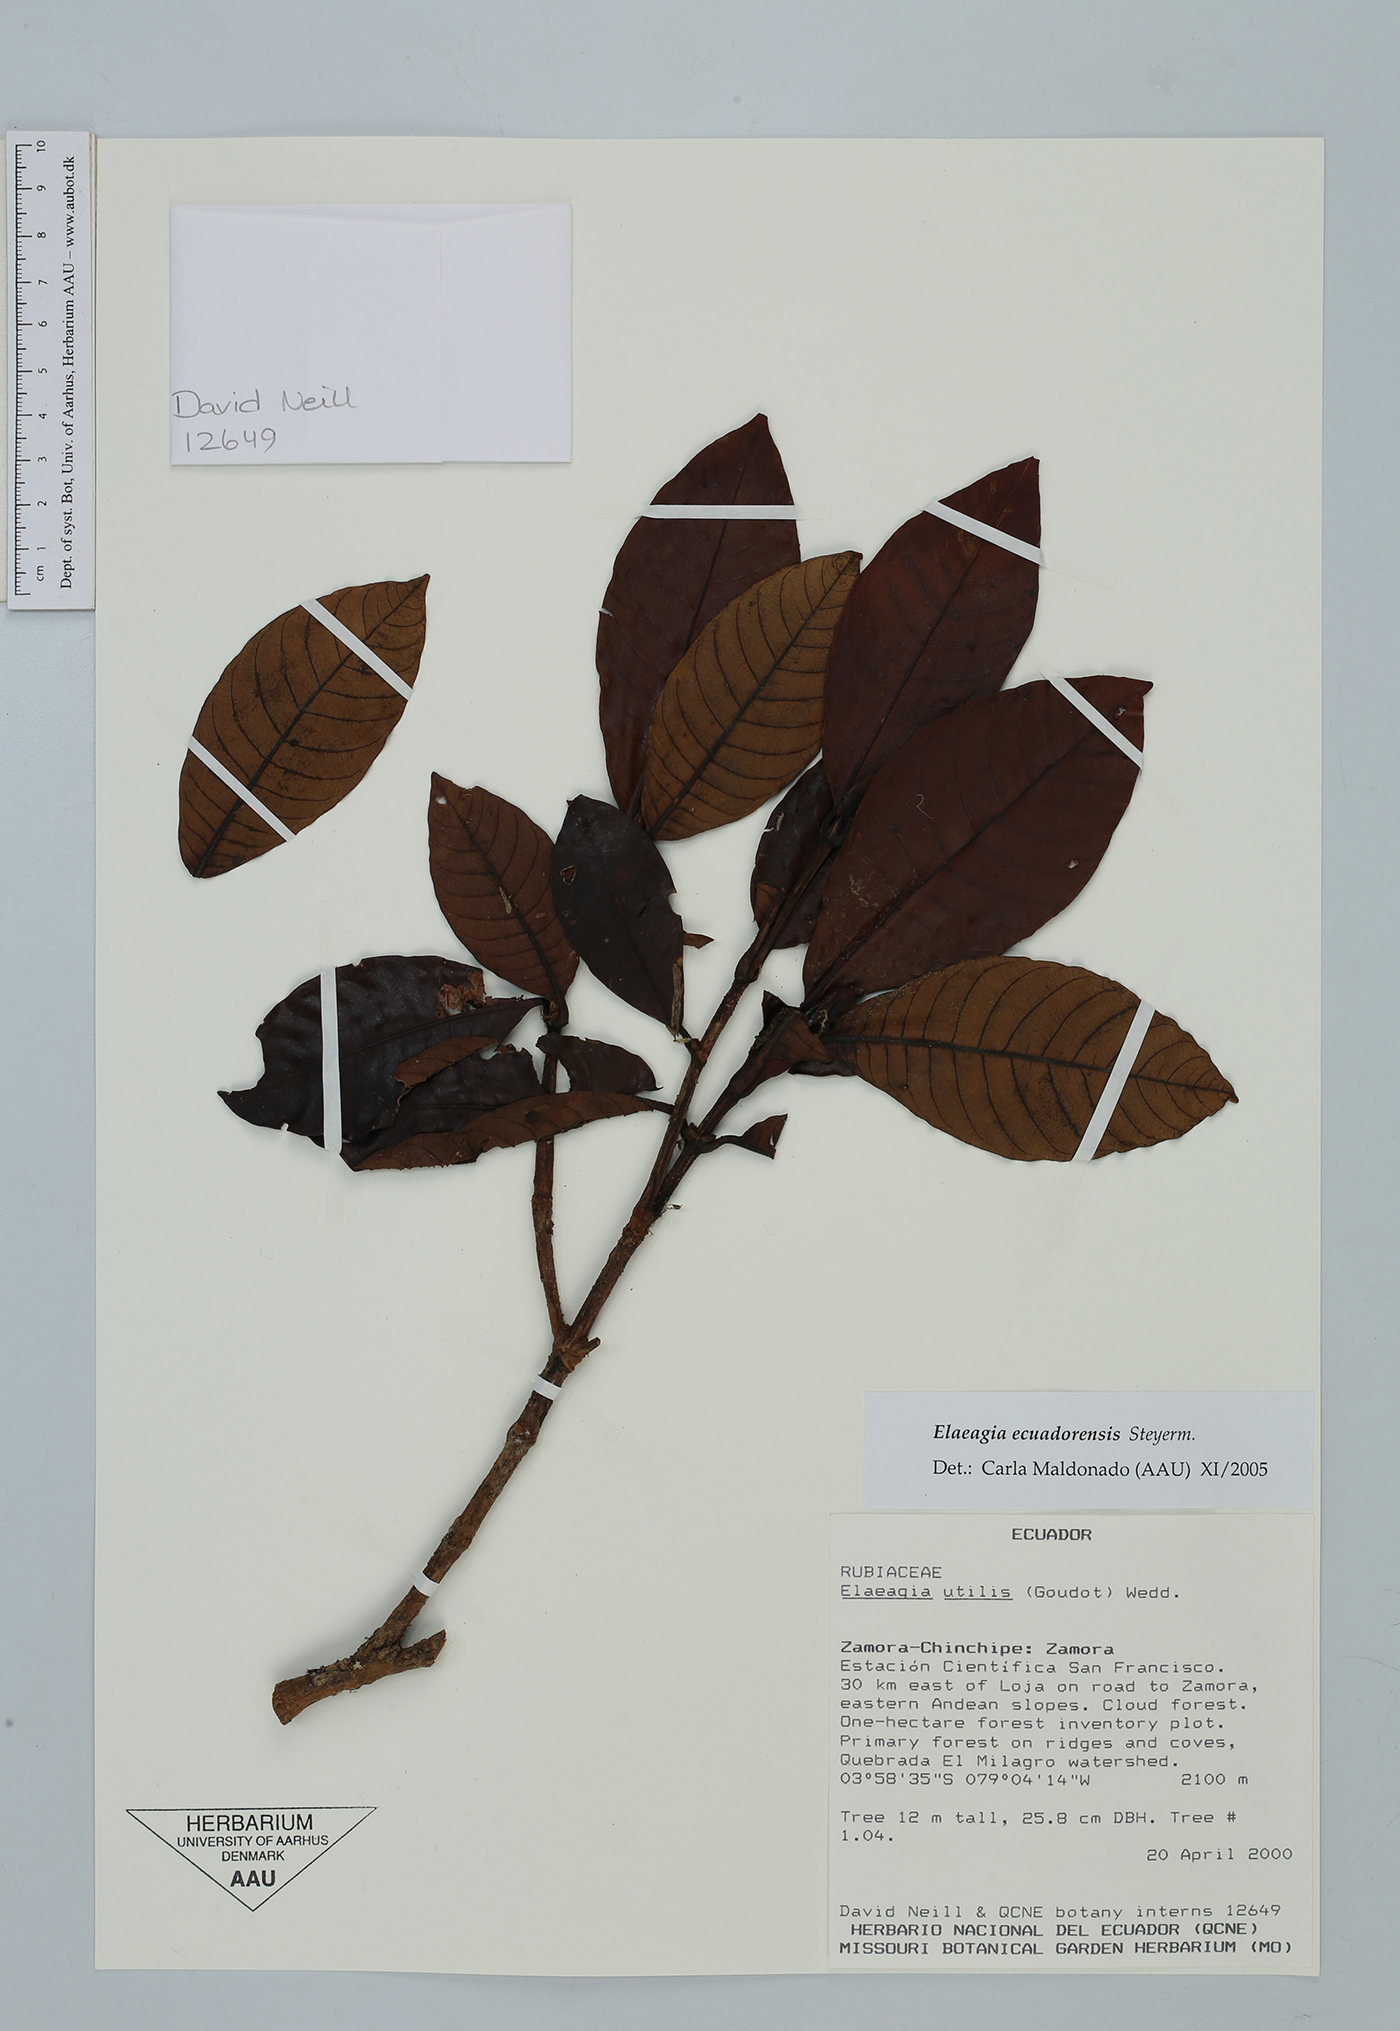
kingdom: Plantae
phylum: Tracheophyta
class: Magnoliopsida
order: Gentianales
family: Rubiaceae
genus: Elaeagia
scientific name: Elaeagia ecuadorensis
